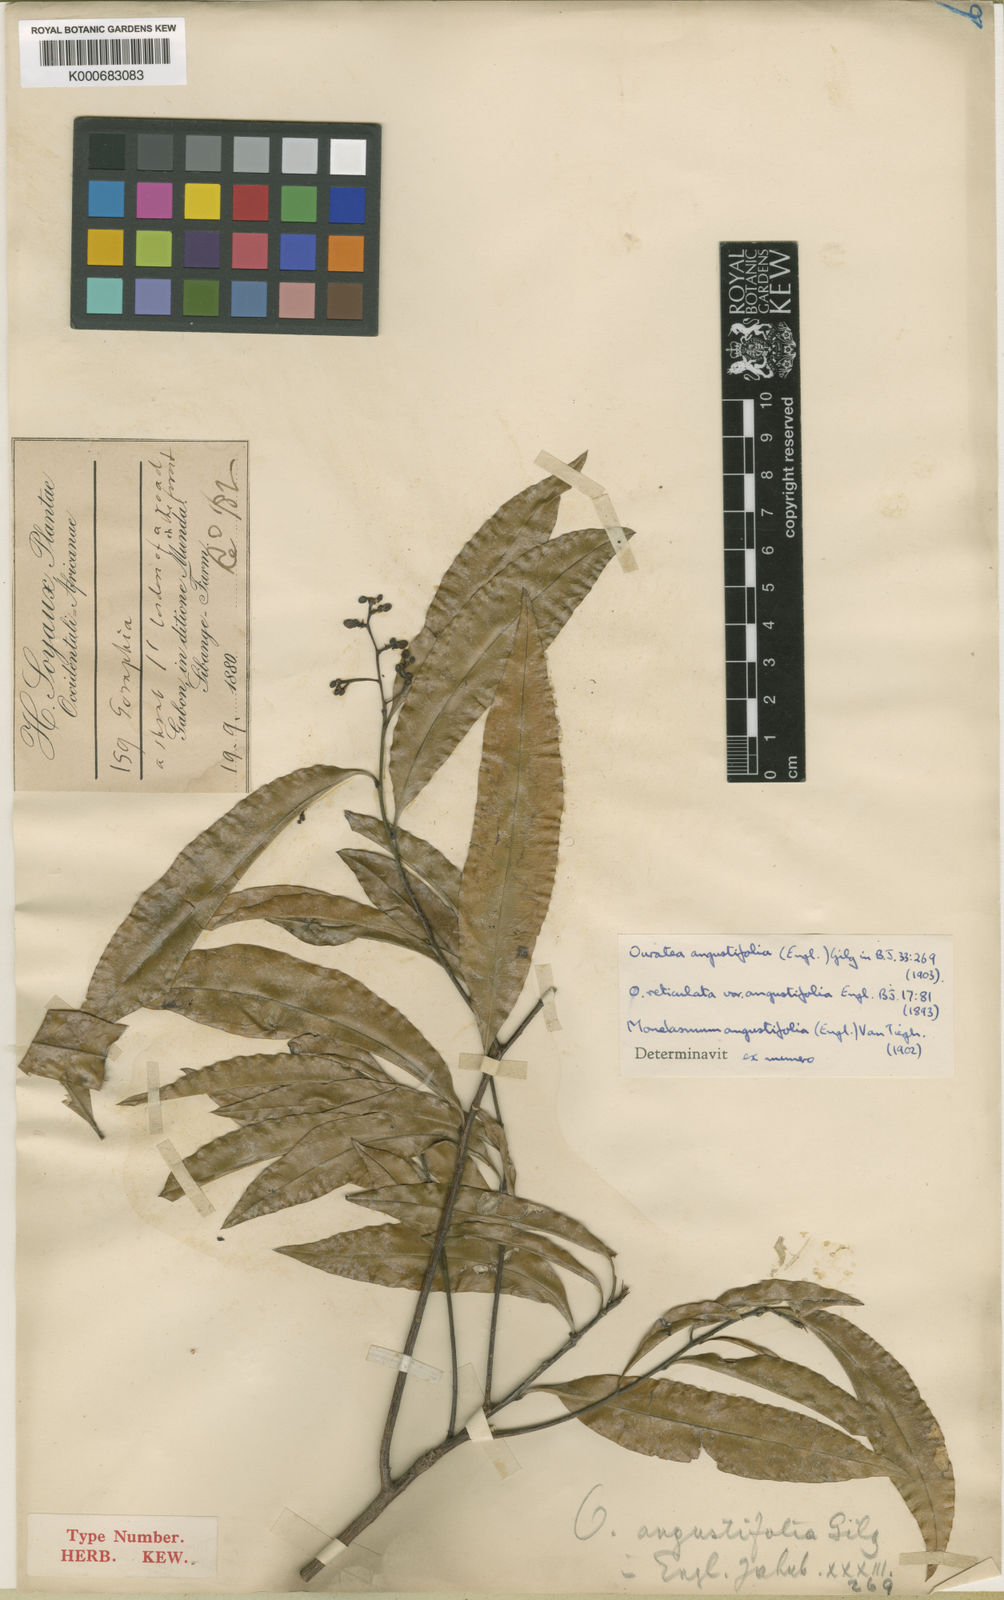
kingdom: Plantae
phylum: Tracheophyta
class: Magnoliopsida
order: Malpighiales
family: Ochnaceae
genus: Campylospermum
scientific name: Campylospermum vogelii
